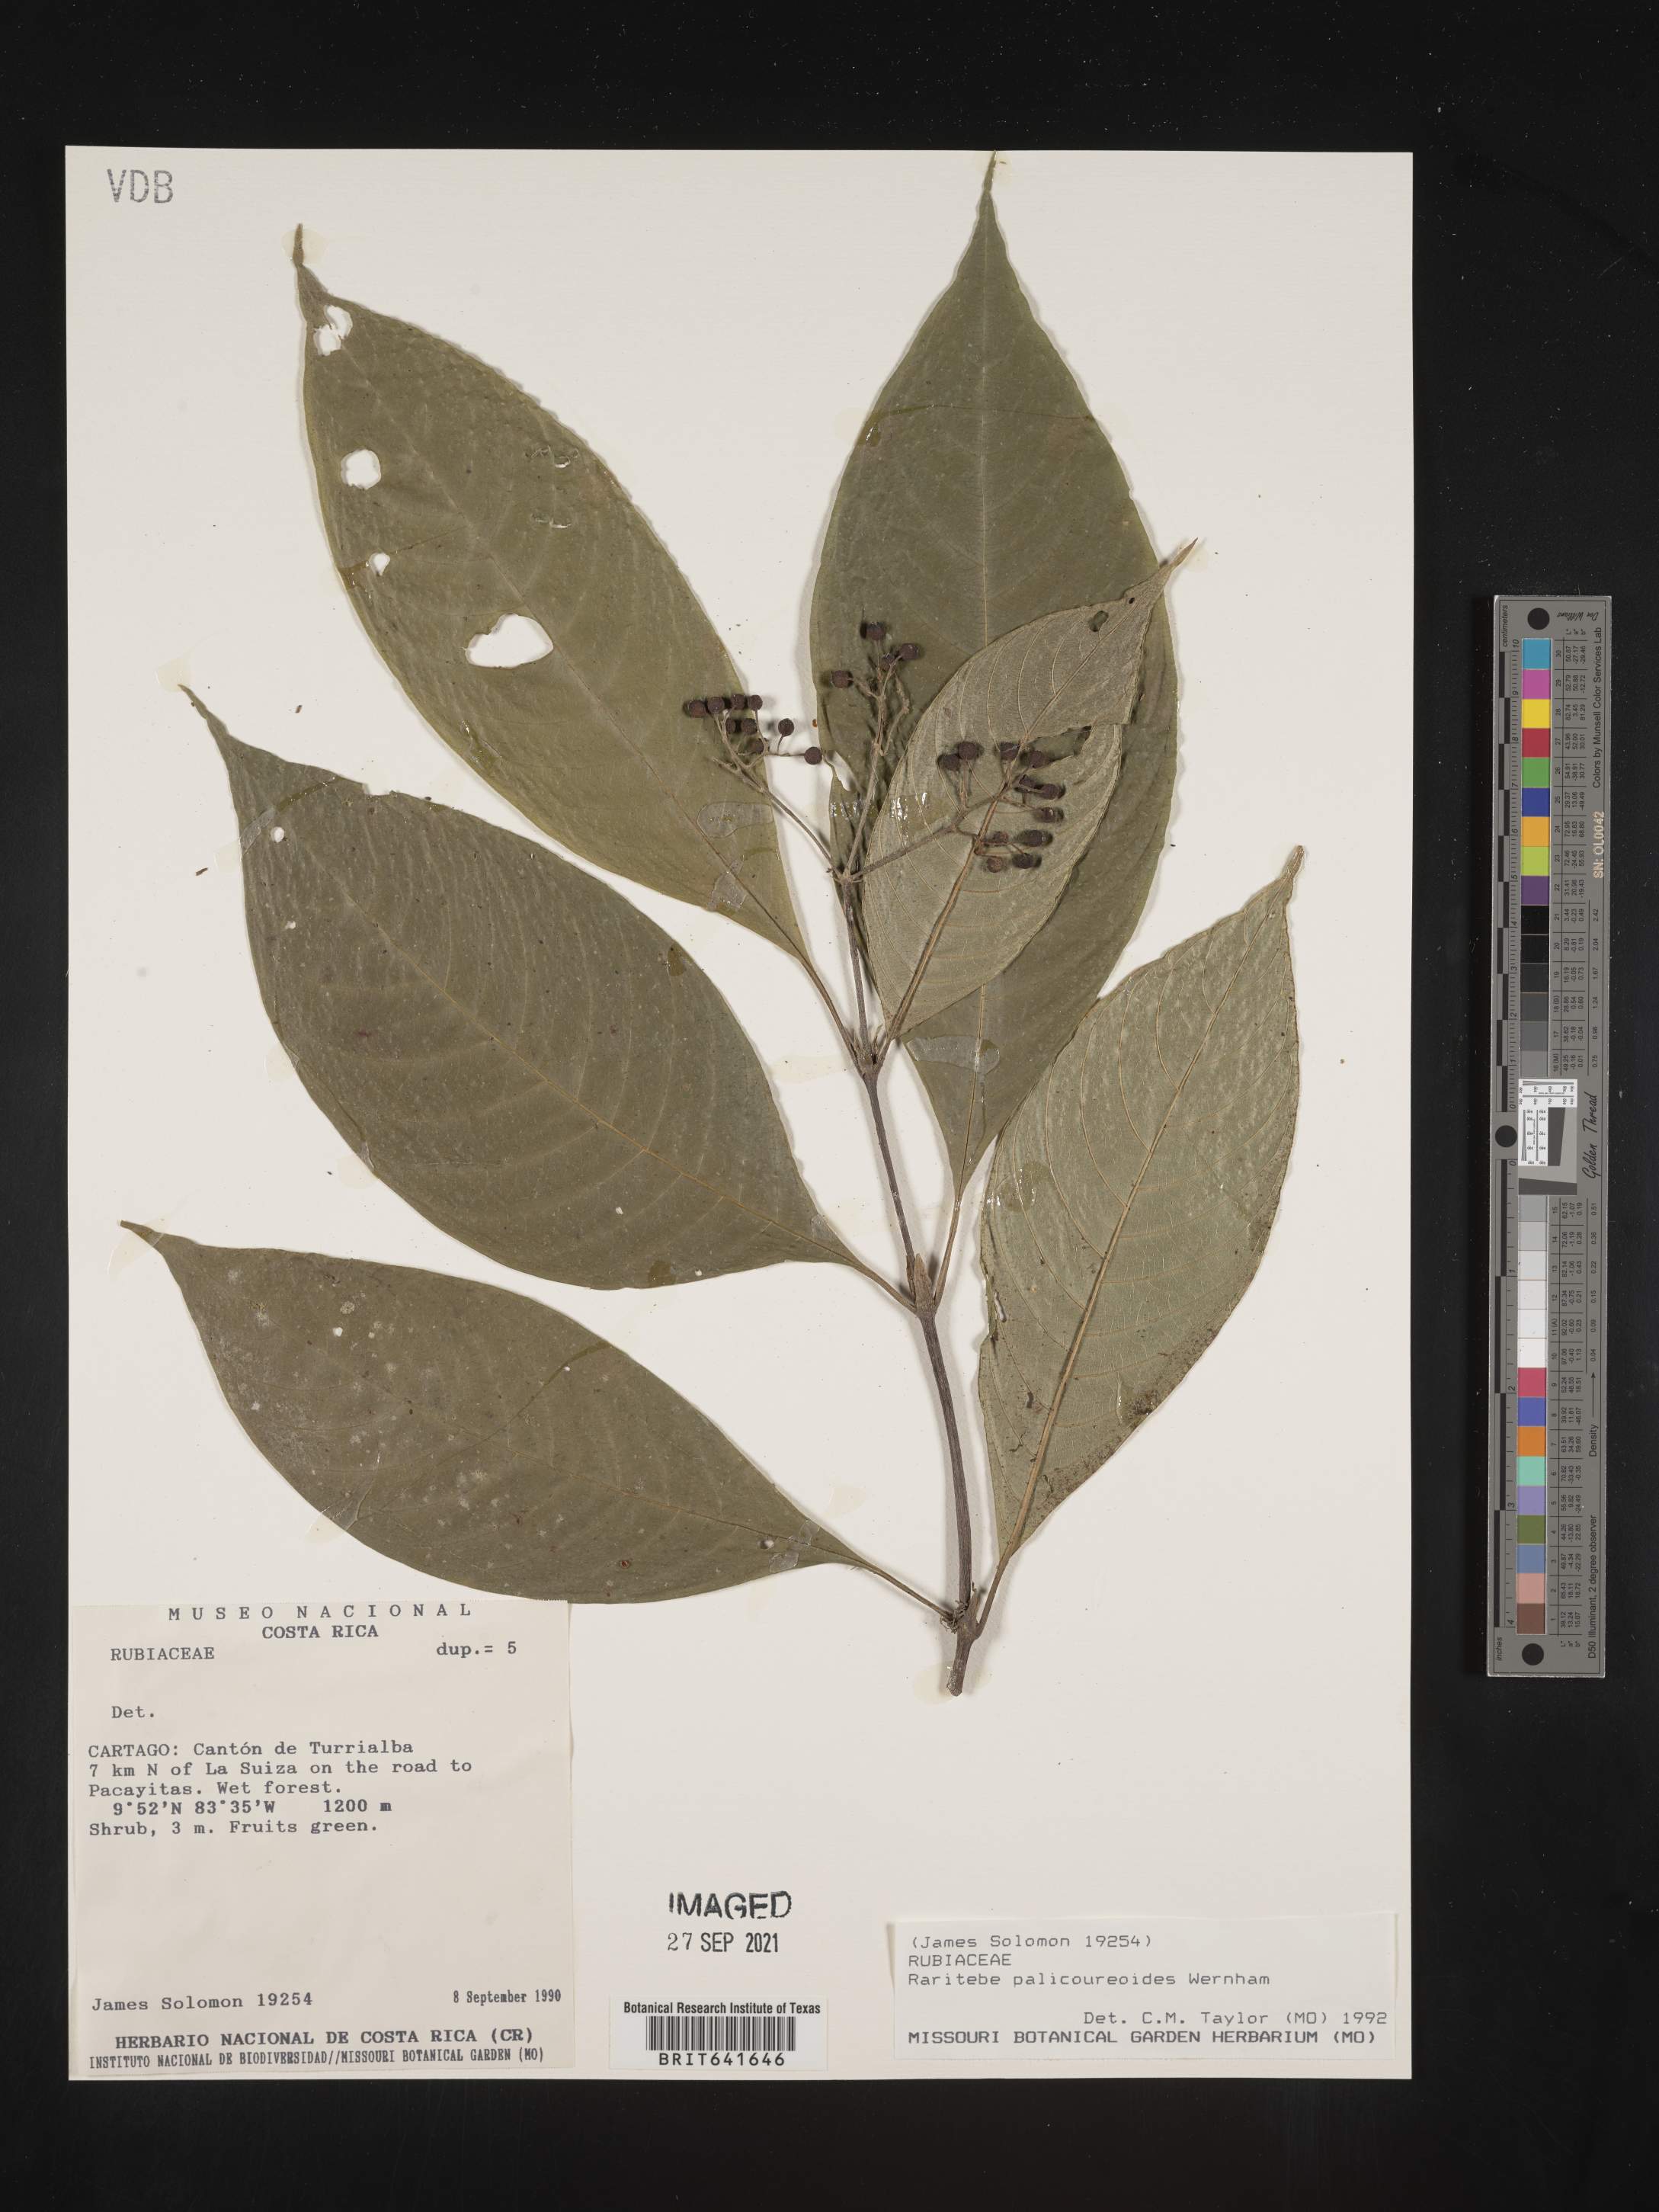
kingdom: Plantae
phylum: Tracheophyta
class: Magnoliopsida
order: Gentianales
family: Rubiaceae
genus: Raritebe
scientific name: Raritebe
